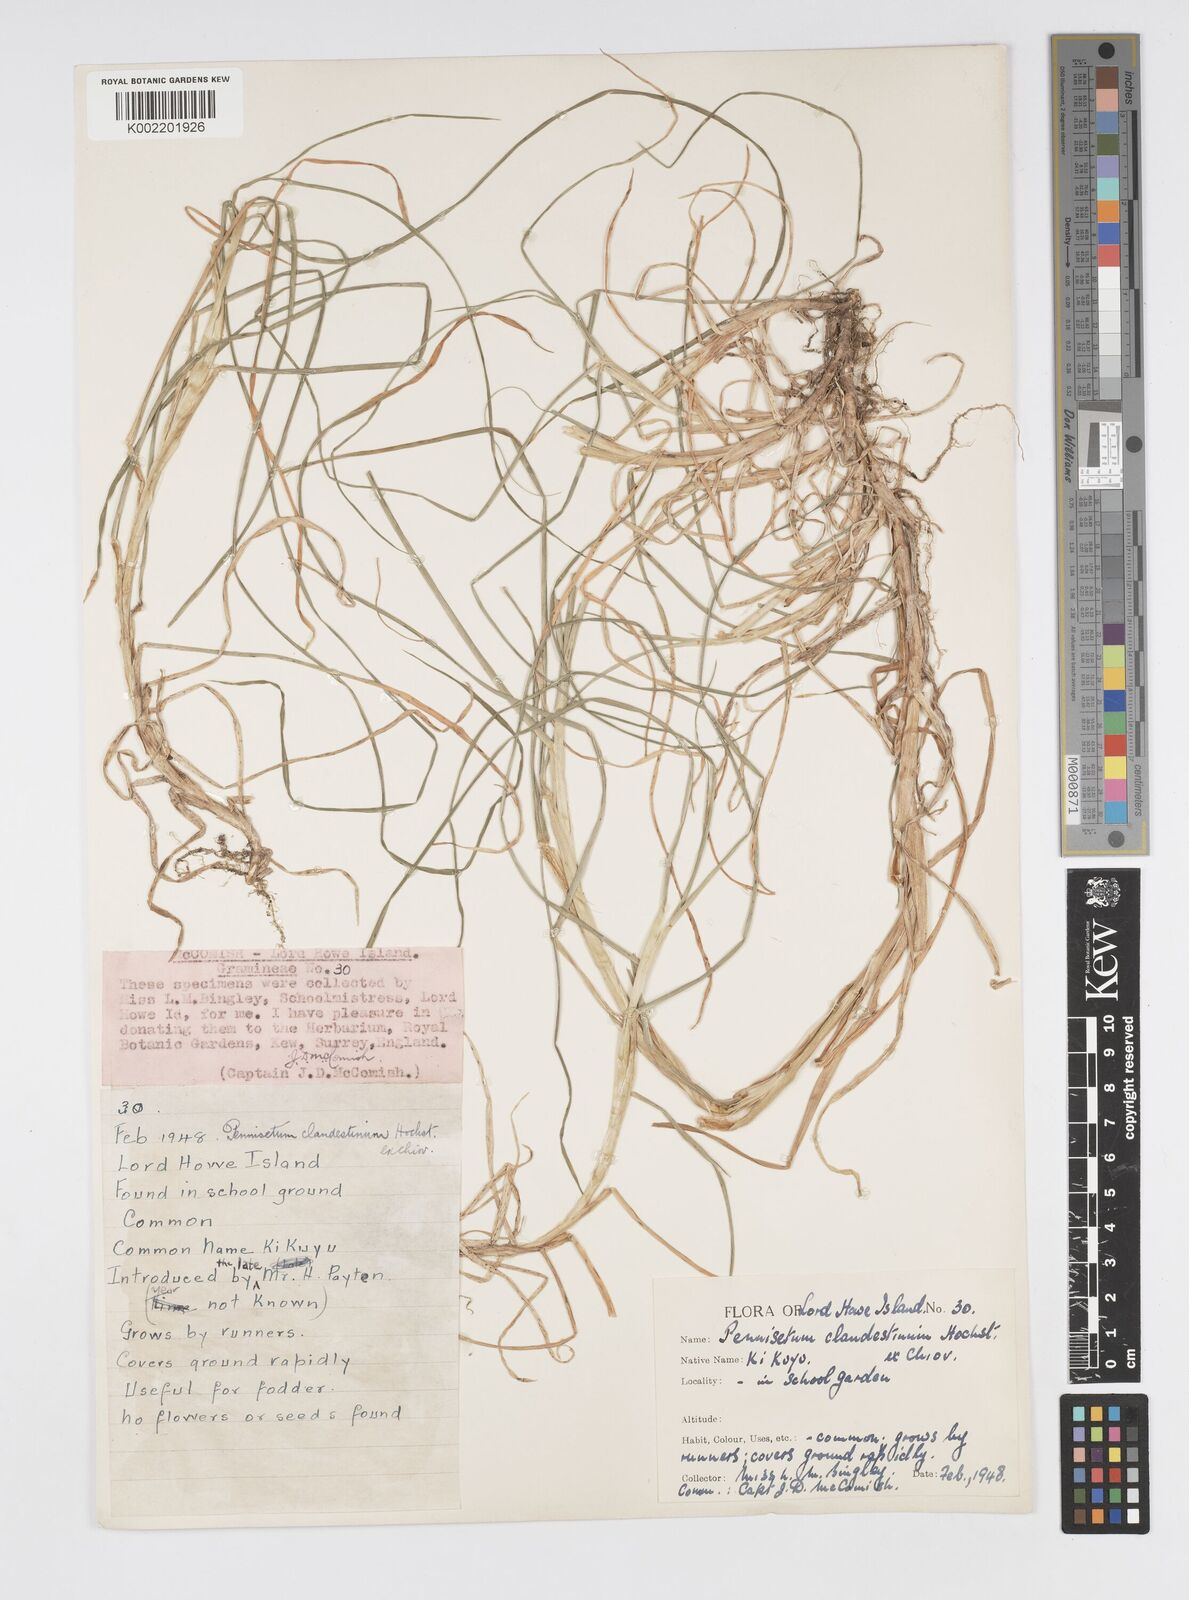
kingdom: Plantae
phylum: Tracheophyta
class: Liliopsida
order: Poales
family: Poaceae
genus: Cenchrus
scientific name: Cenchrus clandestinus
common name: Kikuyugrass
